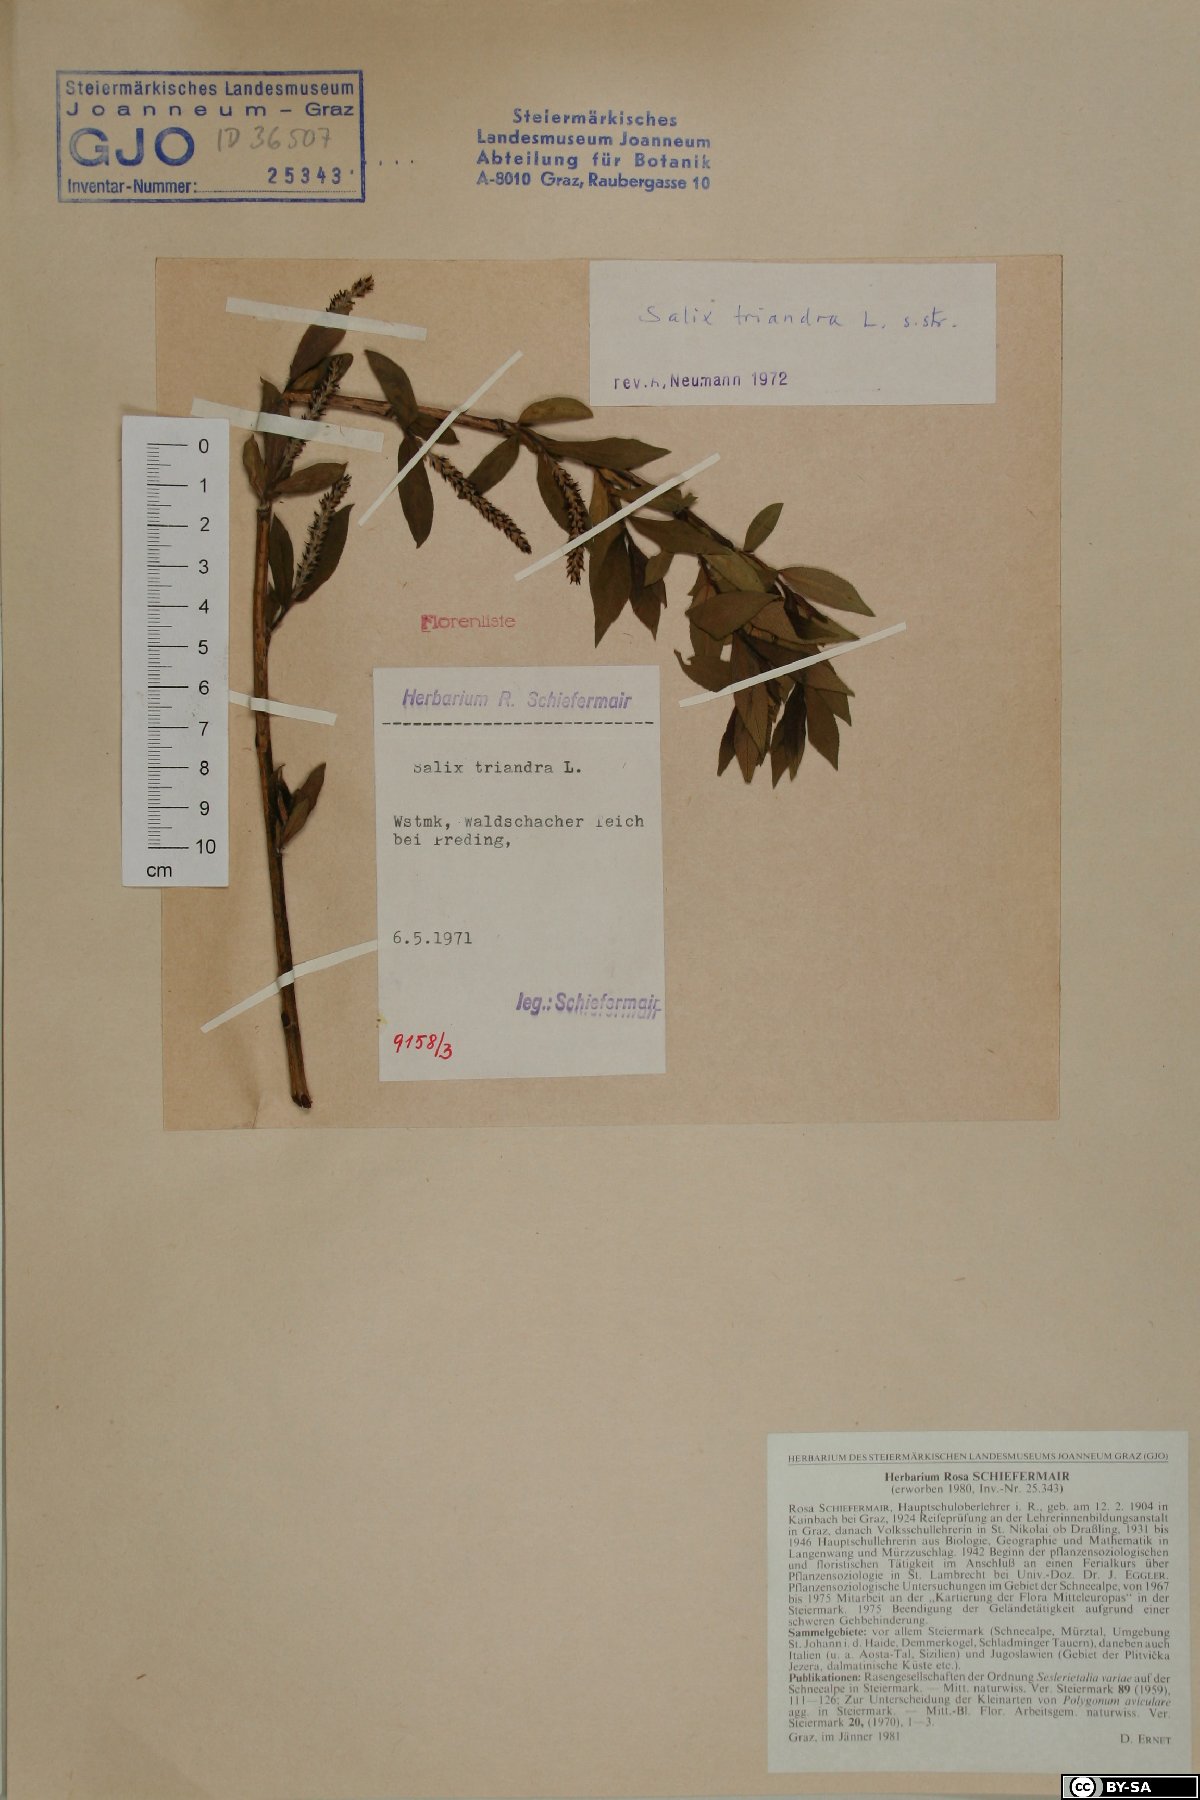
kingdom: Plantae
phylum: Tracheophyta
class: Magnoliopsida
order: Malpighiales
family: Salicaceae
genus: Salix
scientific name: Salix triandra
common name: Almond willow
